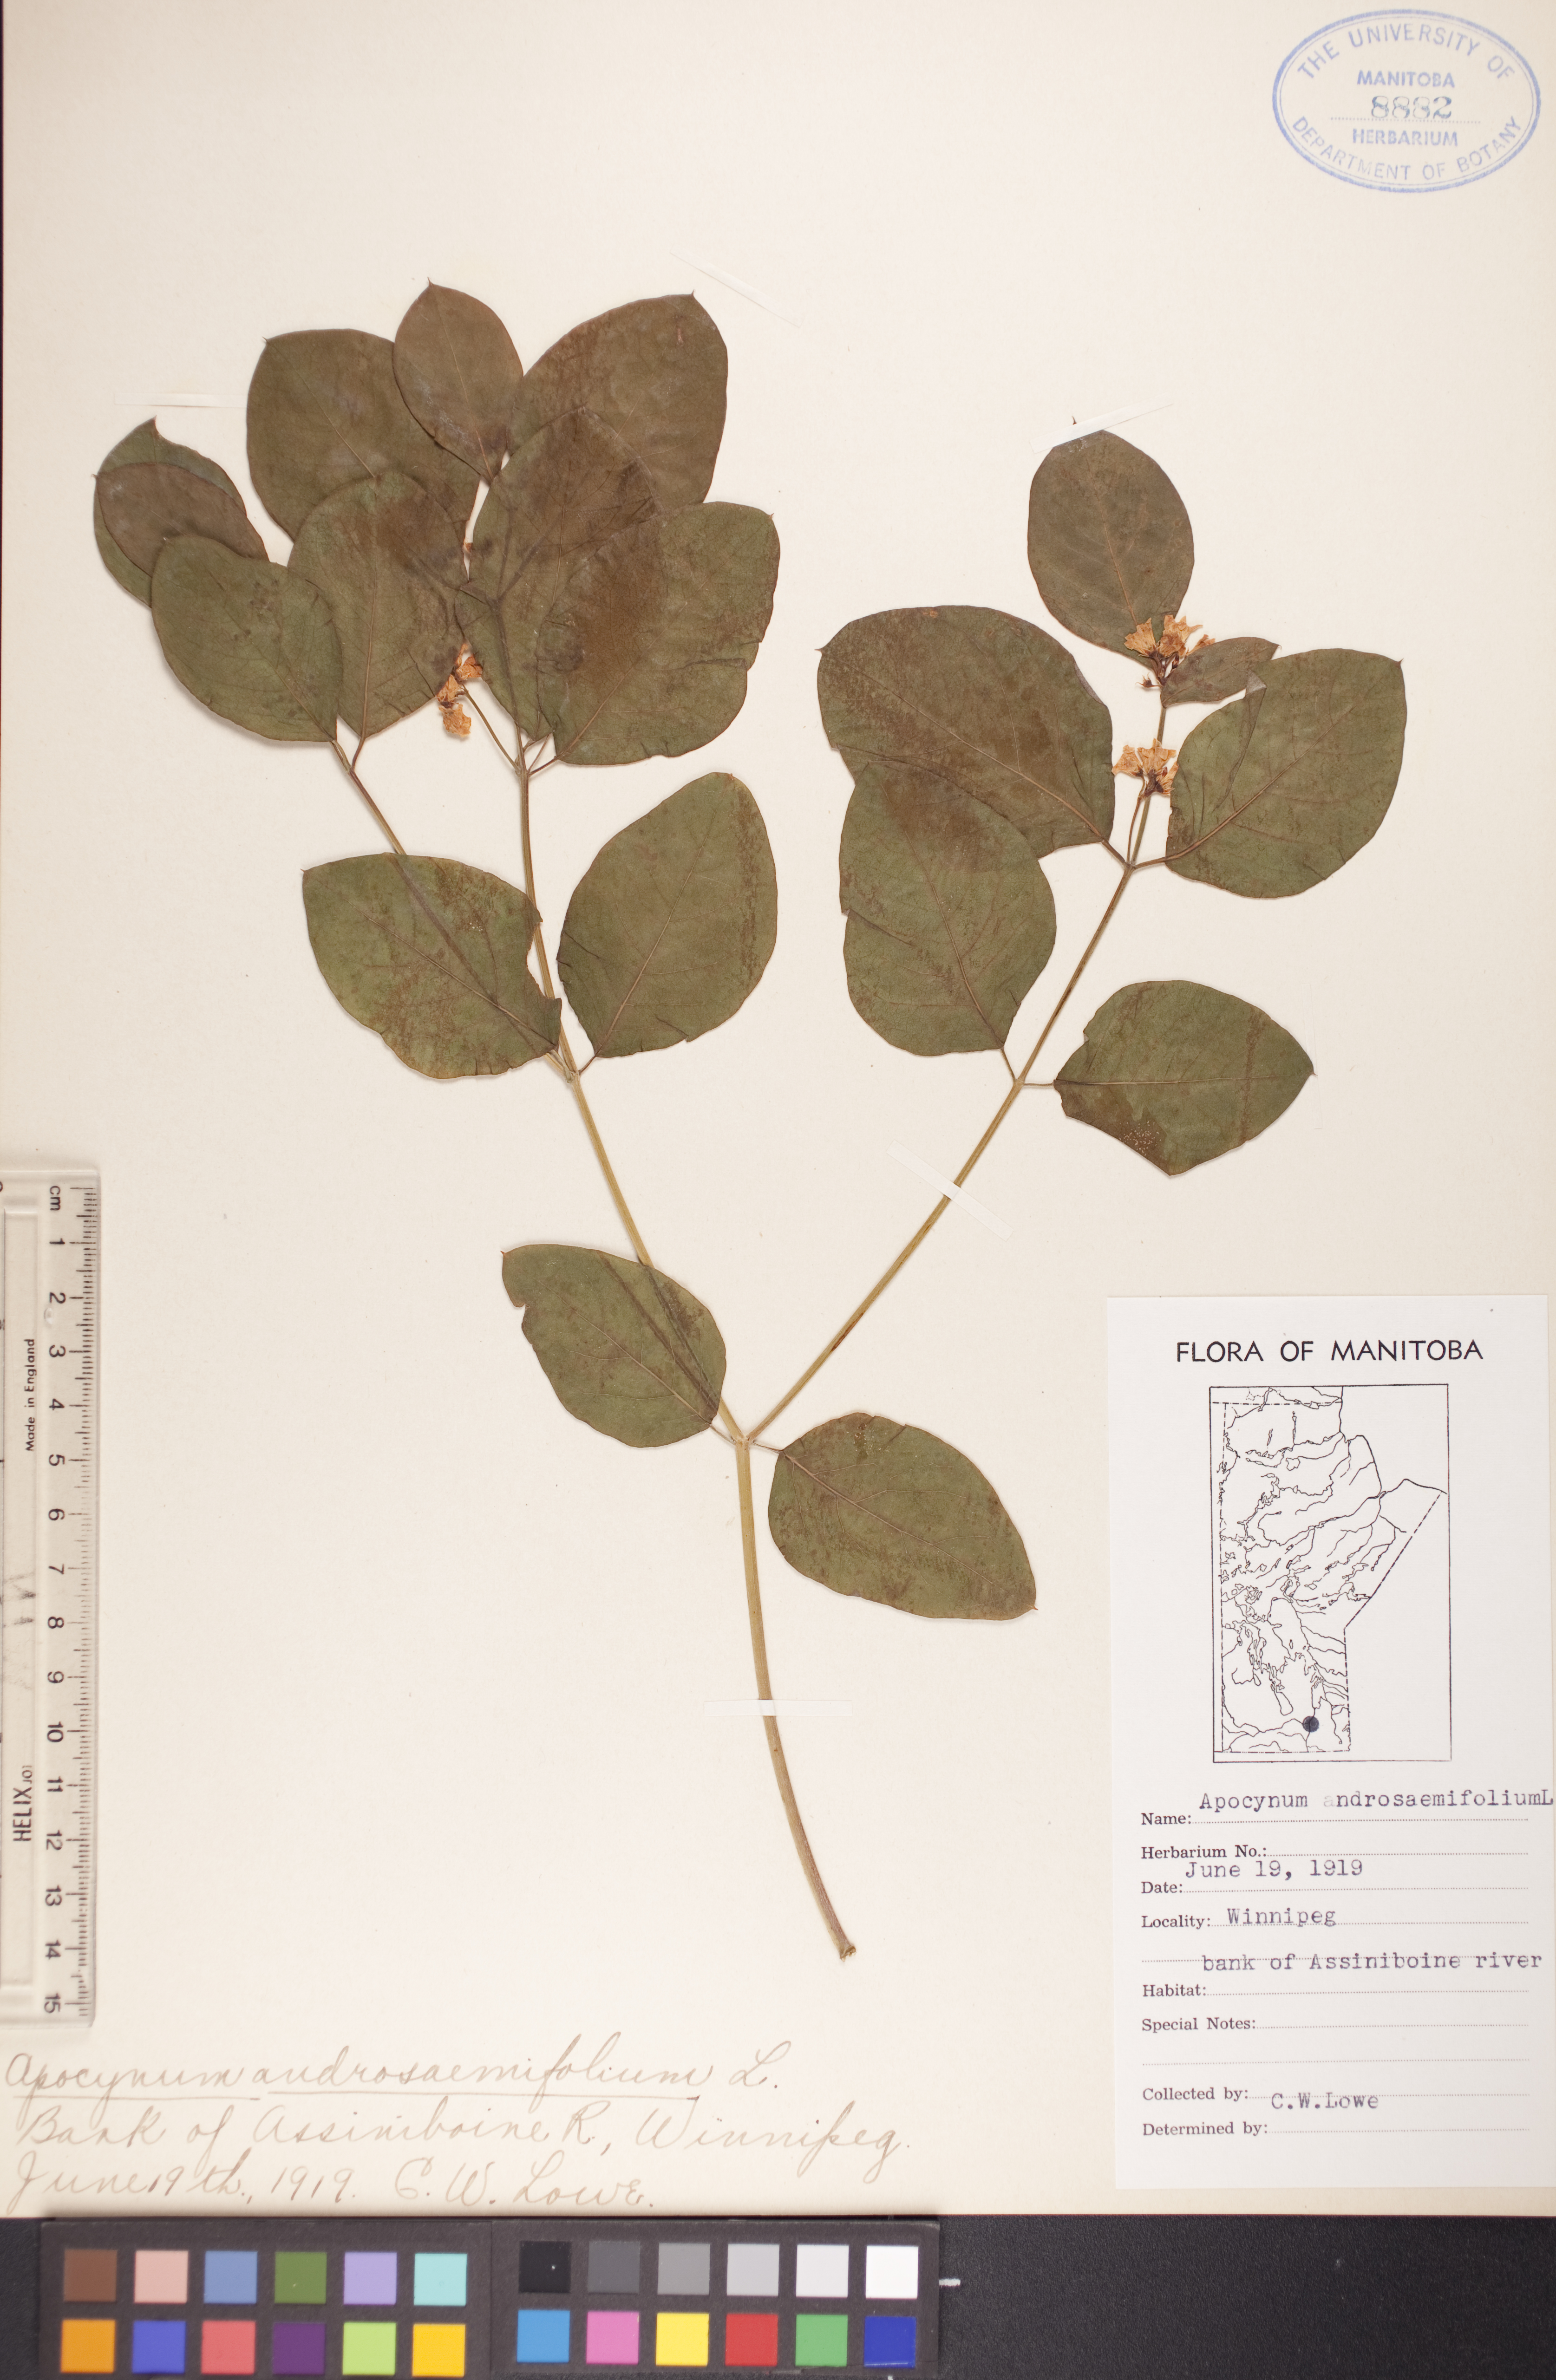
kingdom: Plantae
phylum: Tracheophyta
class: Magnoliopsida
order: Gentianales
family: Apocynaceae
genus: Apocynum
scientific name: Apocynum androsaemifolium
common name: Spreading dogbane
